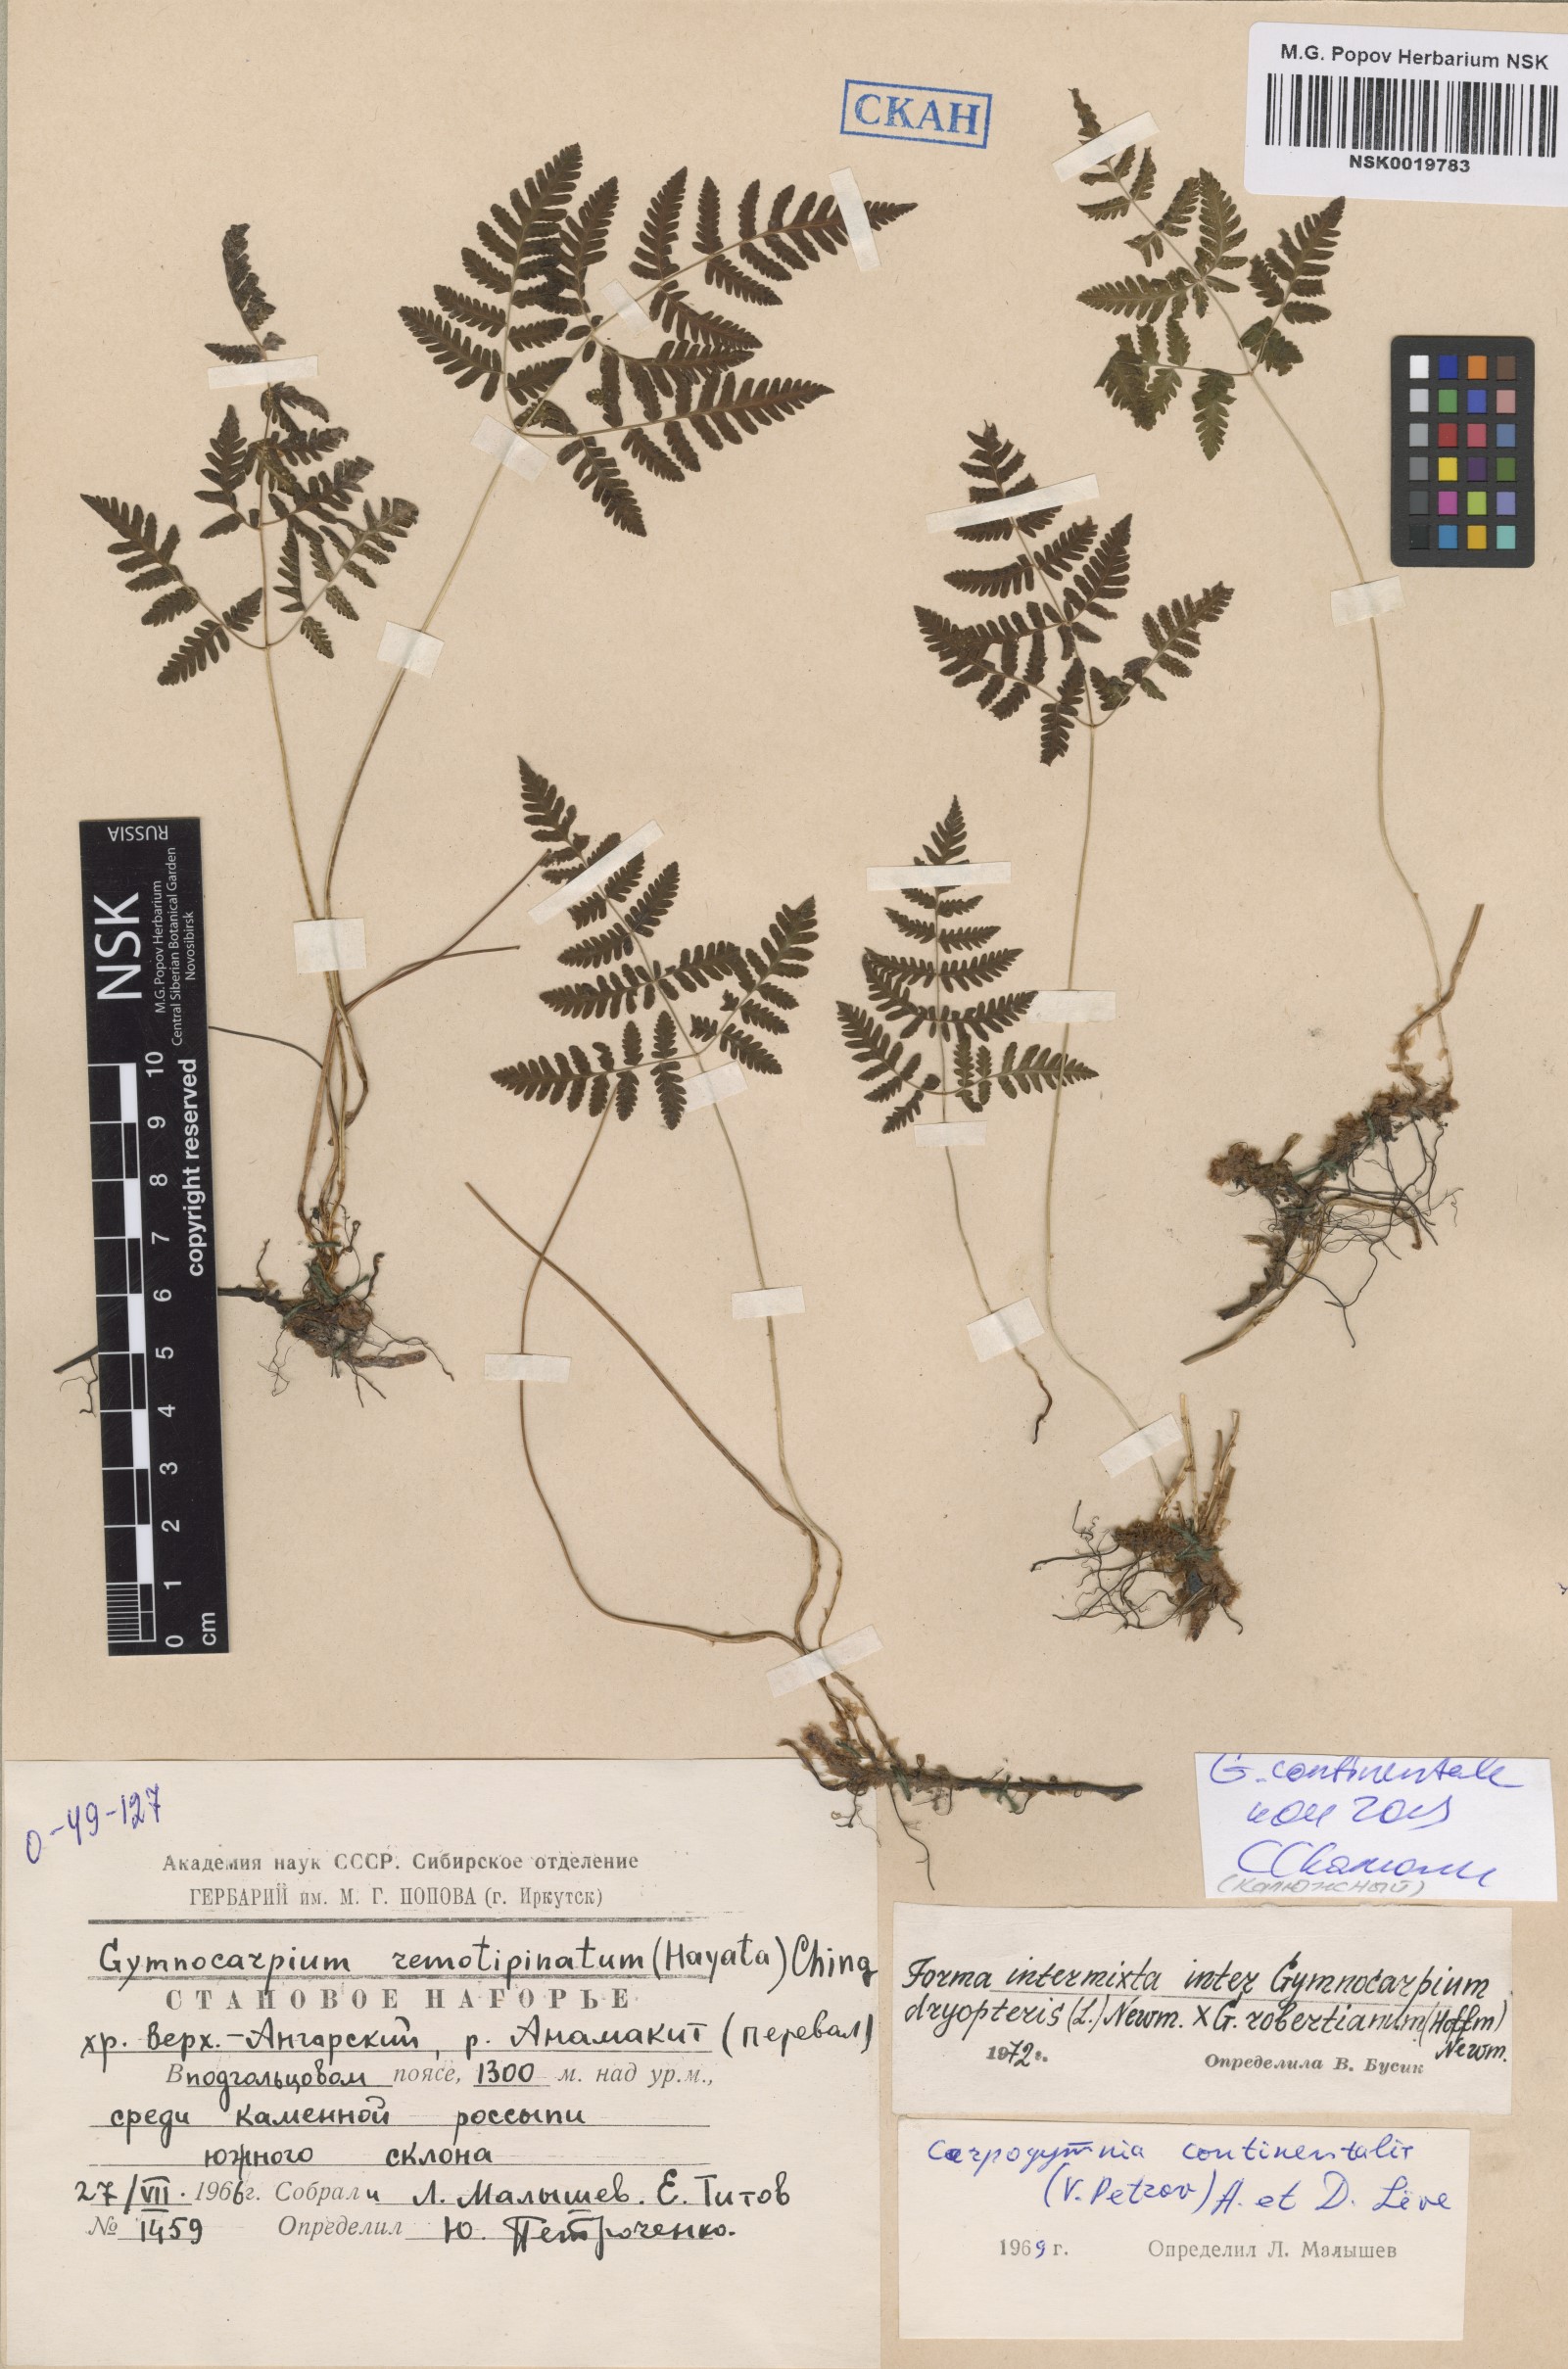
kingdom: Plantae
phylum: Tracheophyta
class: Polypodiopsida
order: Polypodiales
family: Cystopteridaceae
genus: Gymnocarpium
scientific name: Gymnocarpium continentale
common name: Asian oak fern
